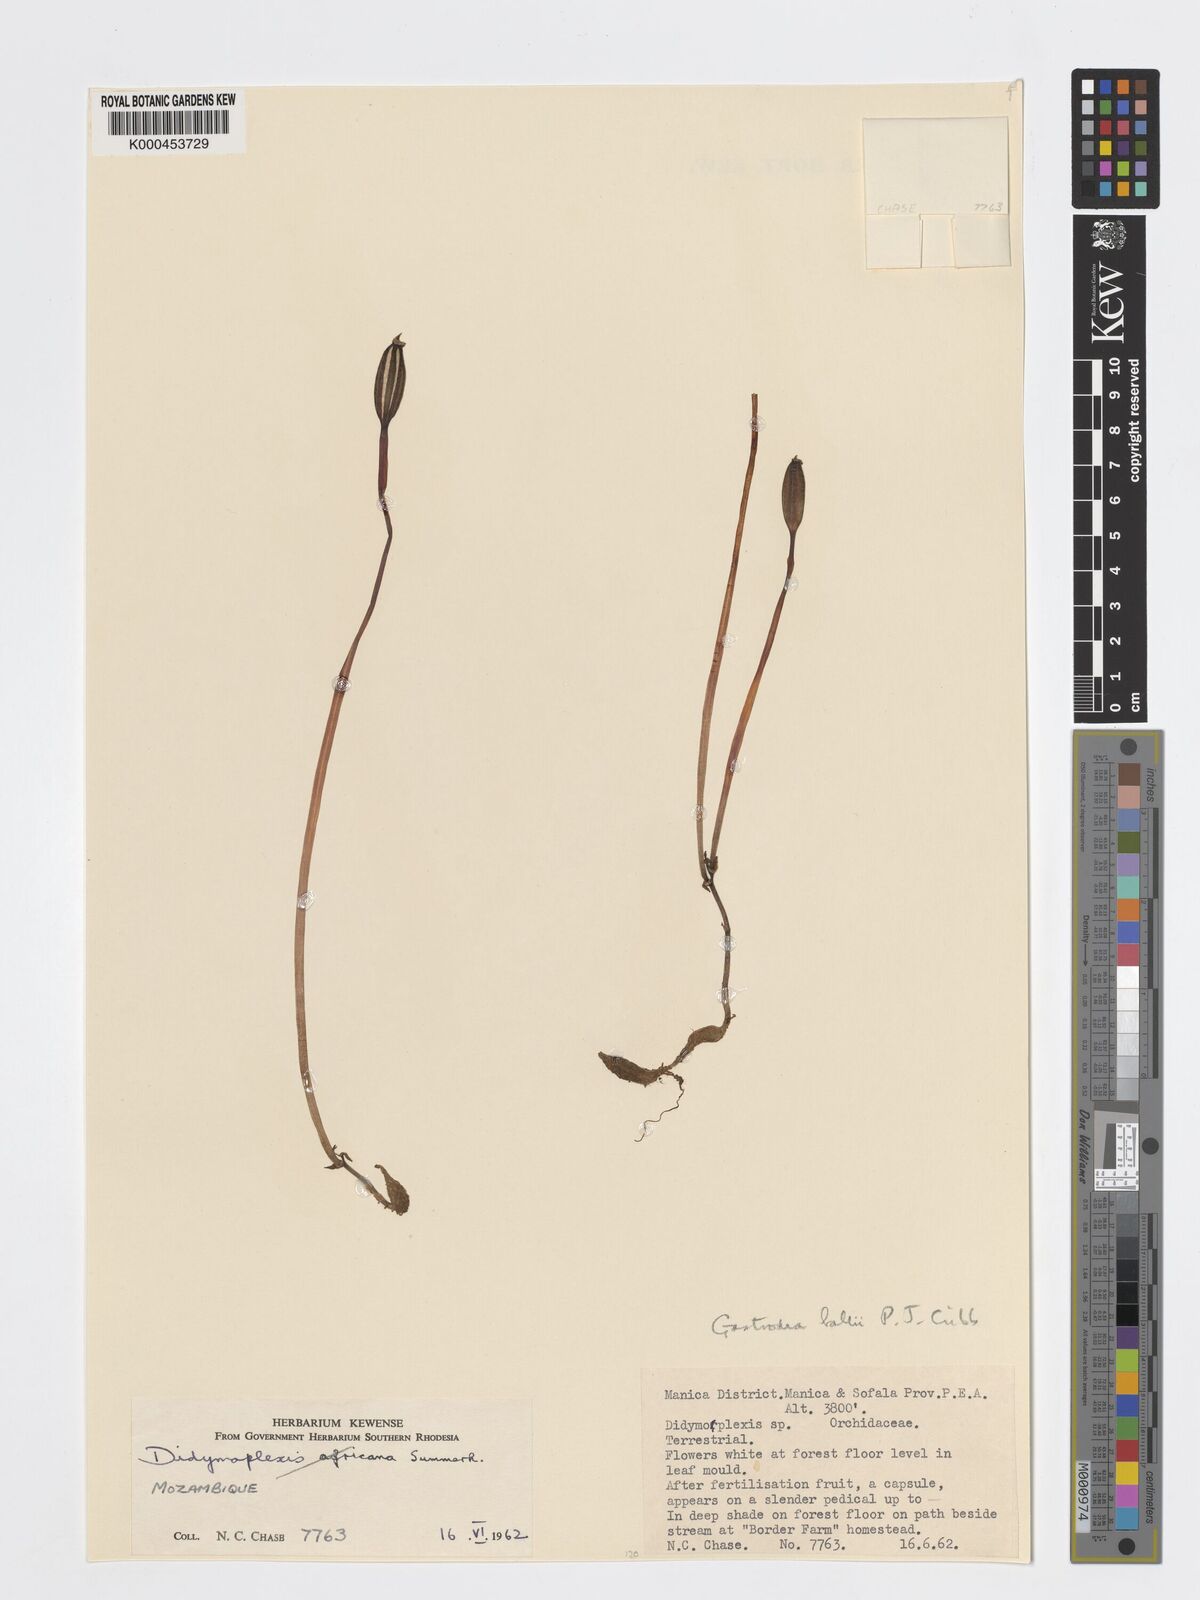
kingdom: Plantae
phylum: Tracheophyta
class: Liliopsida
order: Asparagales
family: Orchidaceae
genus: Didymoplexis
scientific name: Didymoplexis africana
